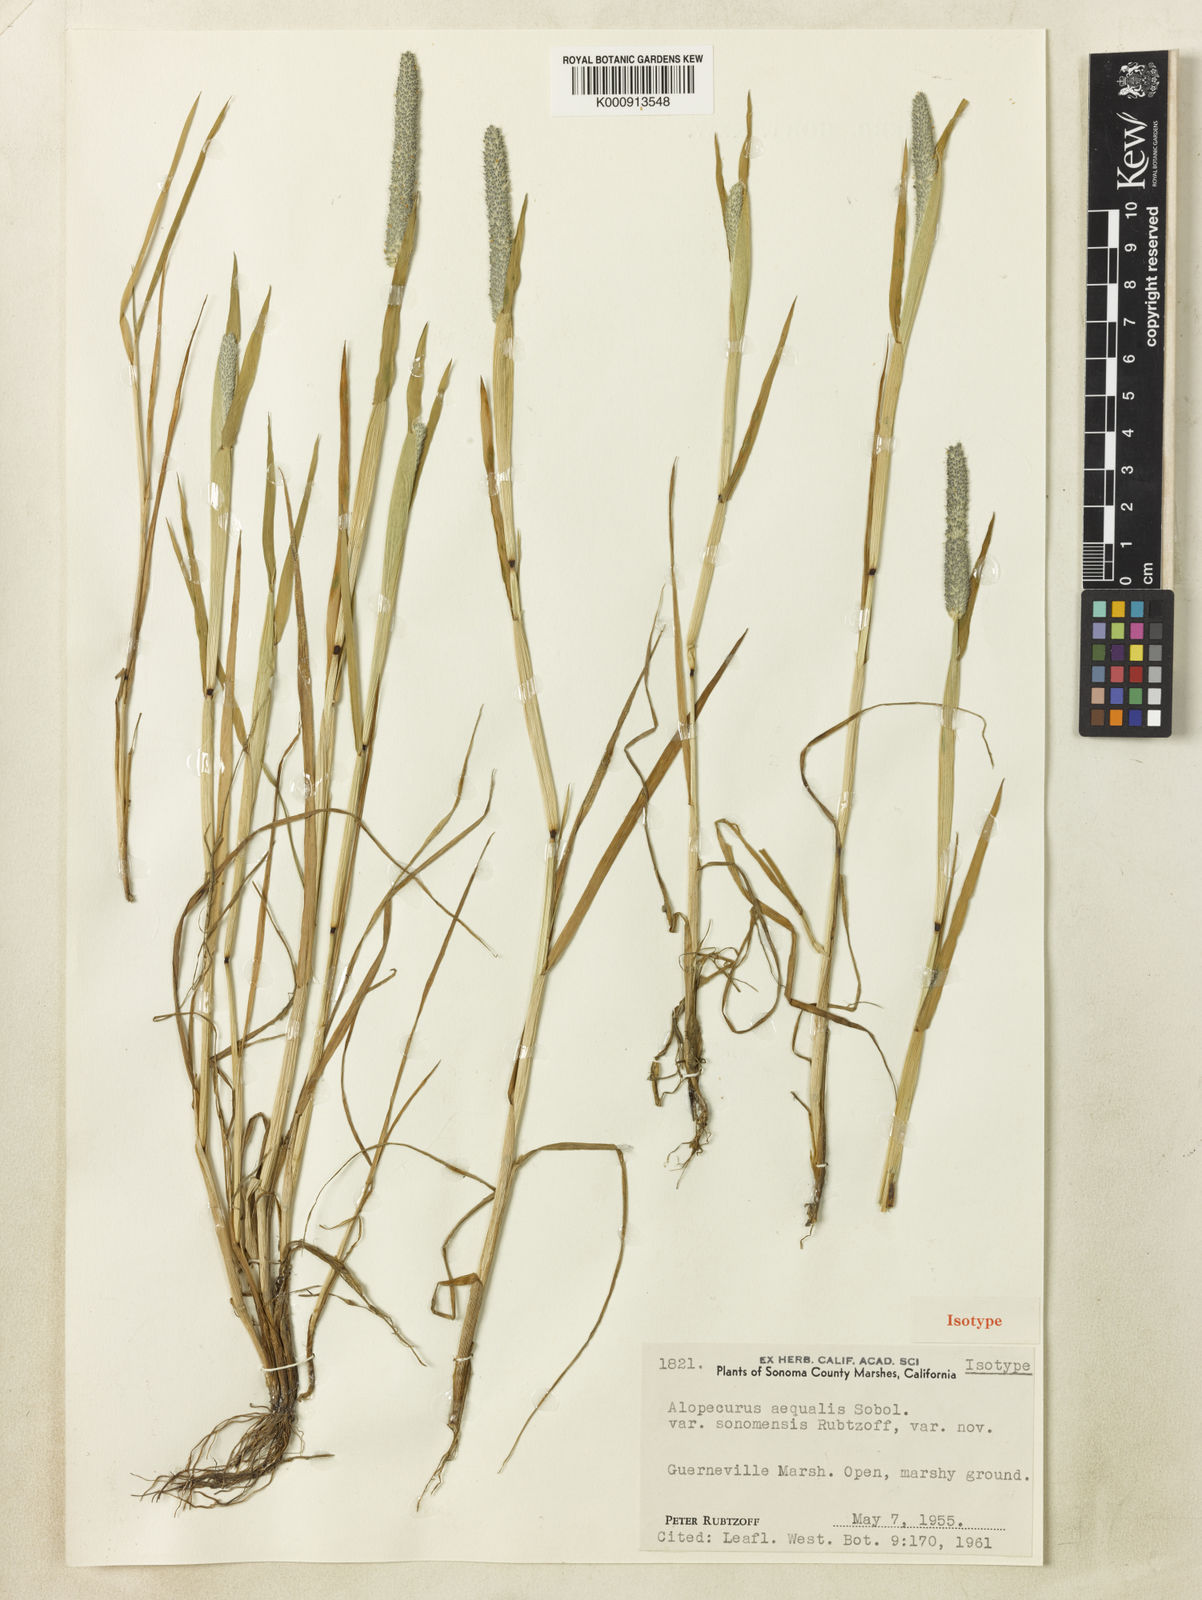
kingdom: Plantae
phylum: Tracheophyta
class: Liliopsida
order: Poales
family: Poaceae
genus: Alopecurus
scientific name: Alopecurus aequalis
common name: Orange foxtail
